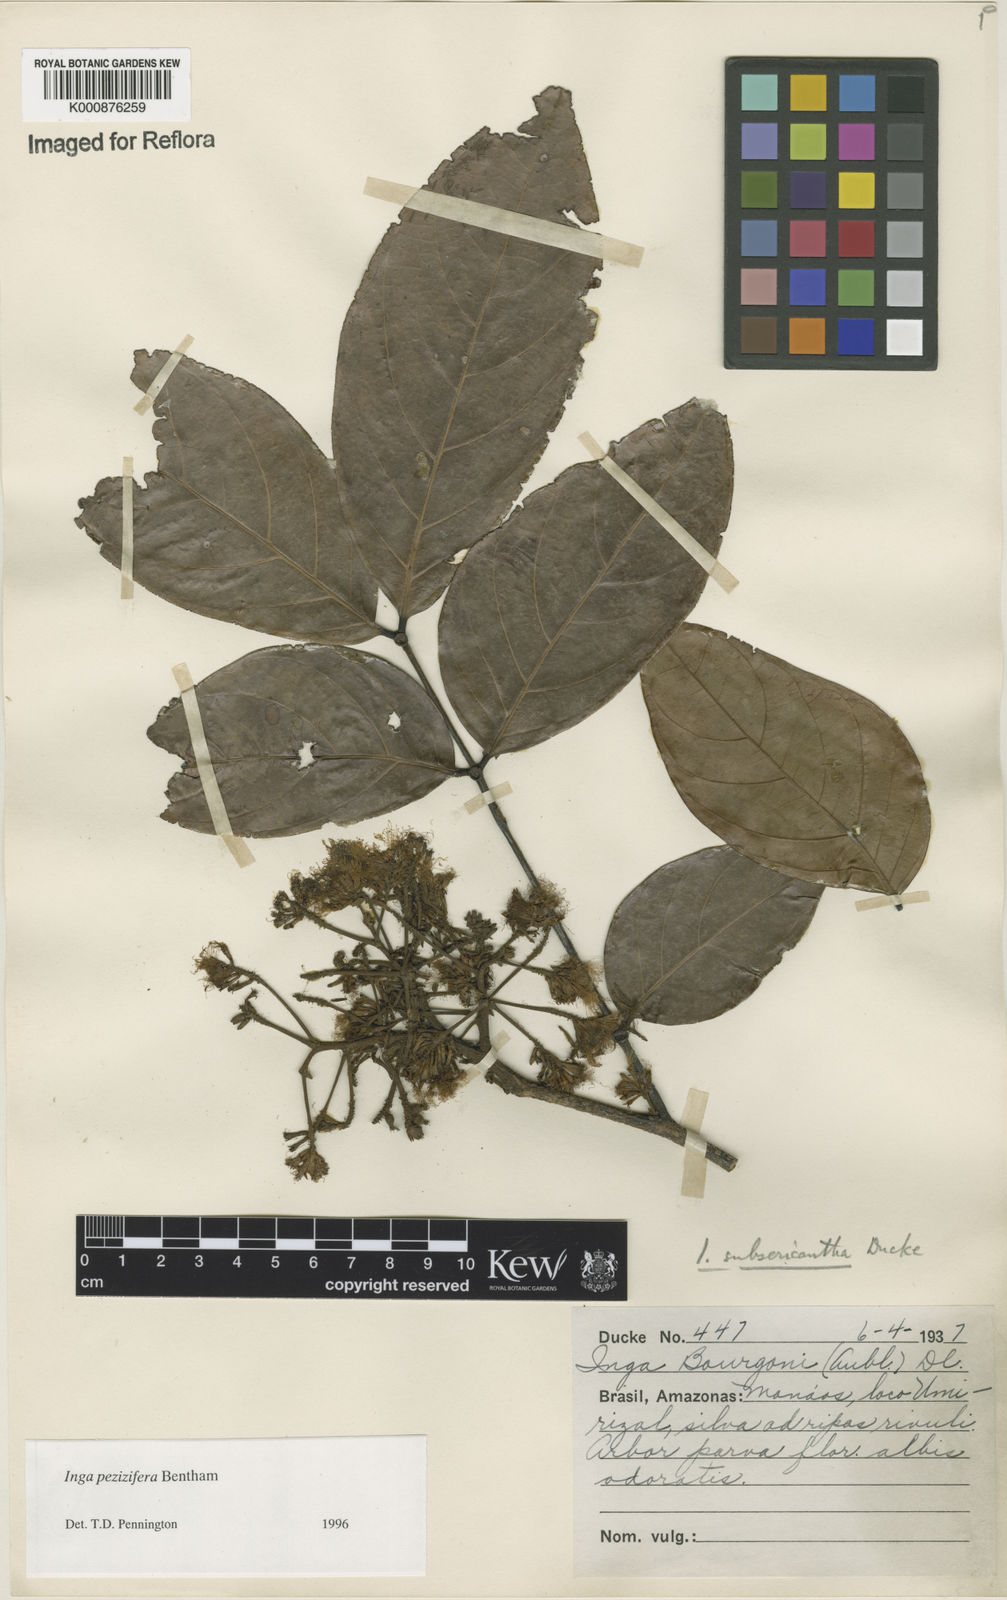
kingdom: Plantae
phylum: Tracheophyta
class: Magnoliopsida
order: Fabales
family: Fabaceae
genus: Inga
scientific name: Inga pezizifera
